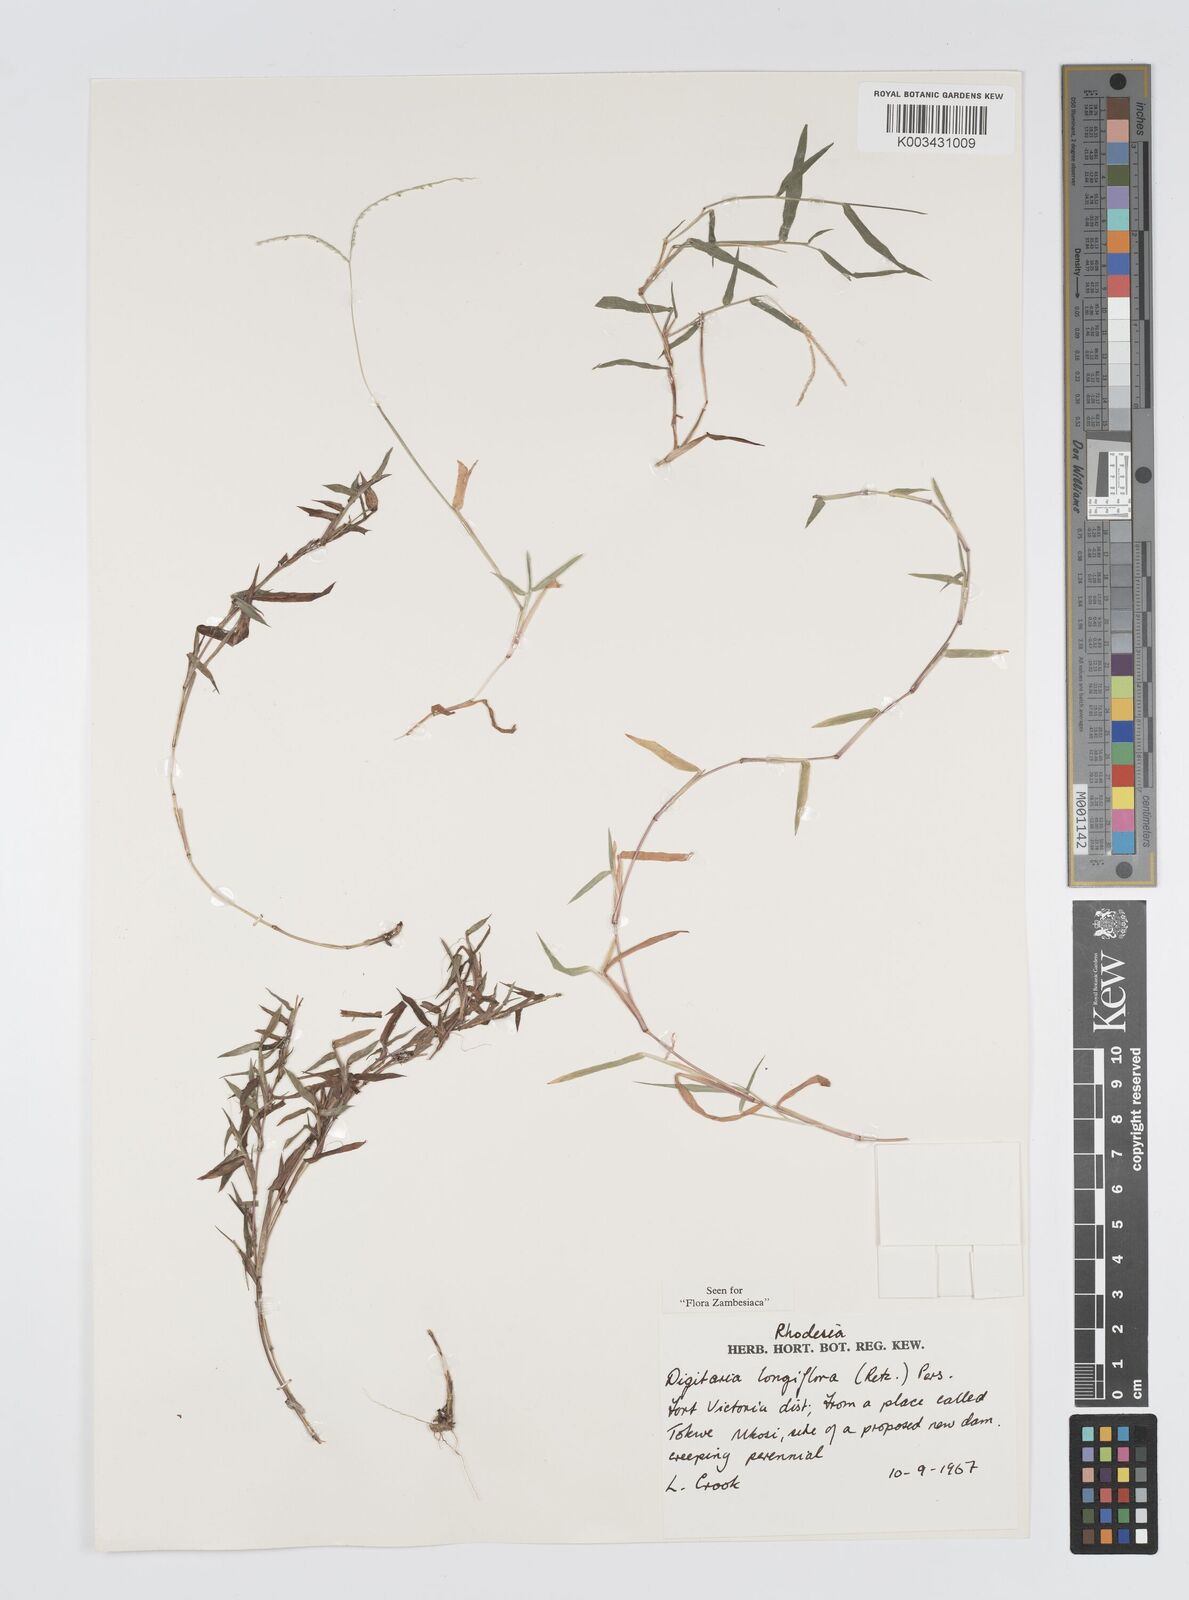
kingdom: Plantae
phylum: Tracheophyta
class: Liliopsida
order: Poales
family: Poaceae
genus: Digitaria
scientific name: Digitaria longiflora
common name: Wire crabgrass
